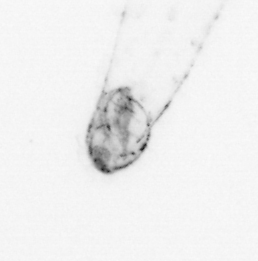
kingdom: Animalia
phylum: Chaetognatha
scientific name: Chaetognatha
